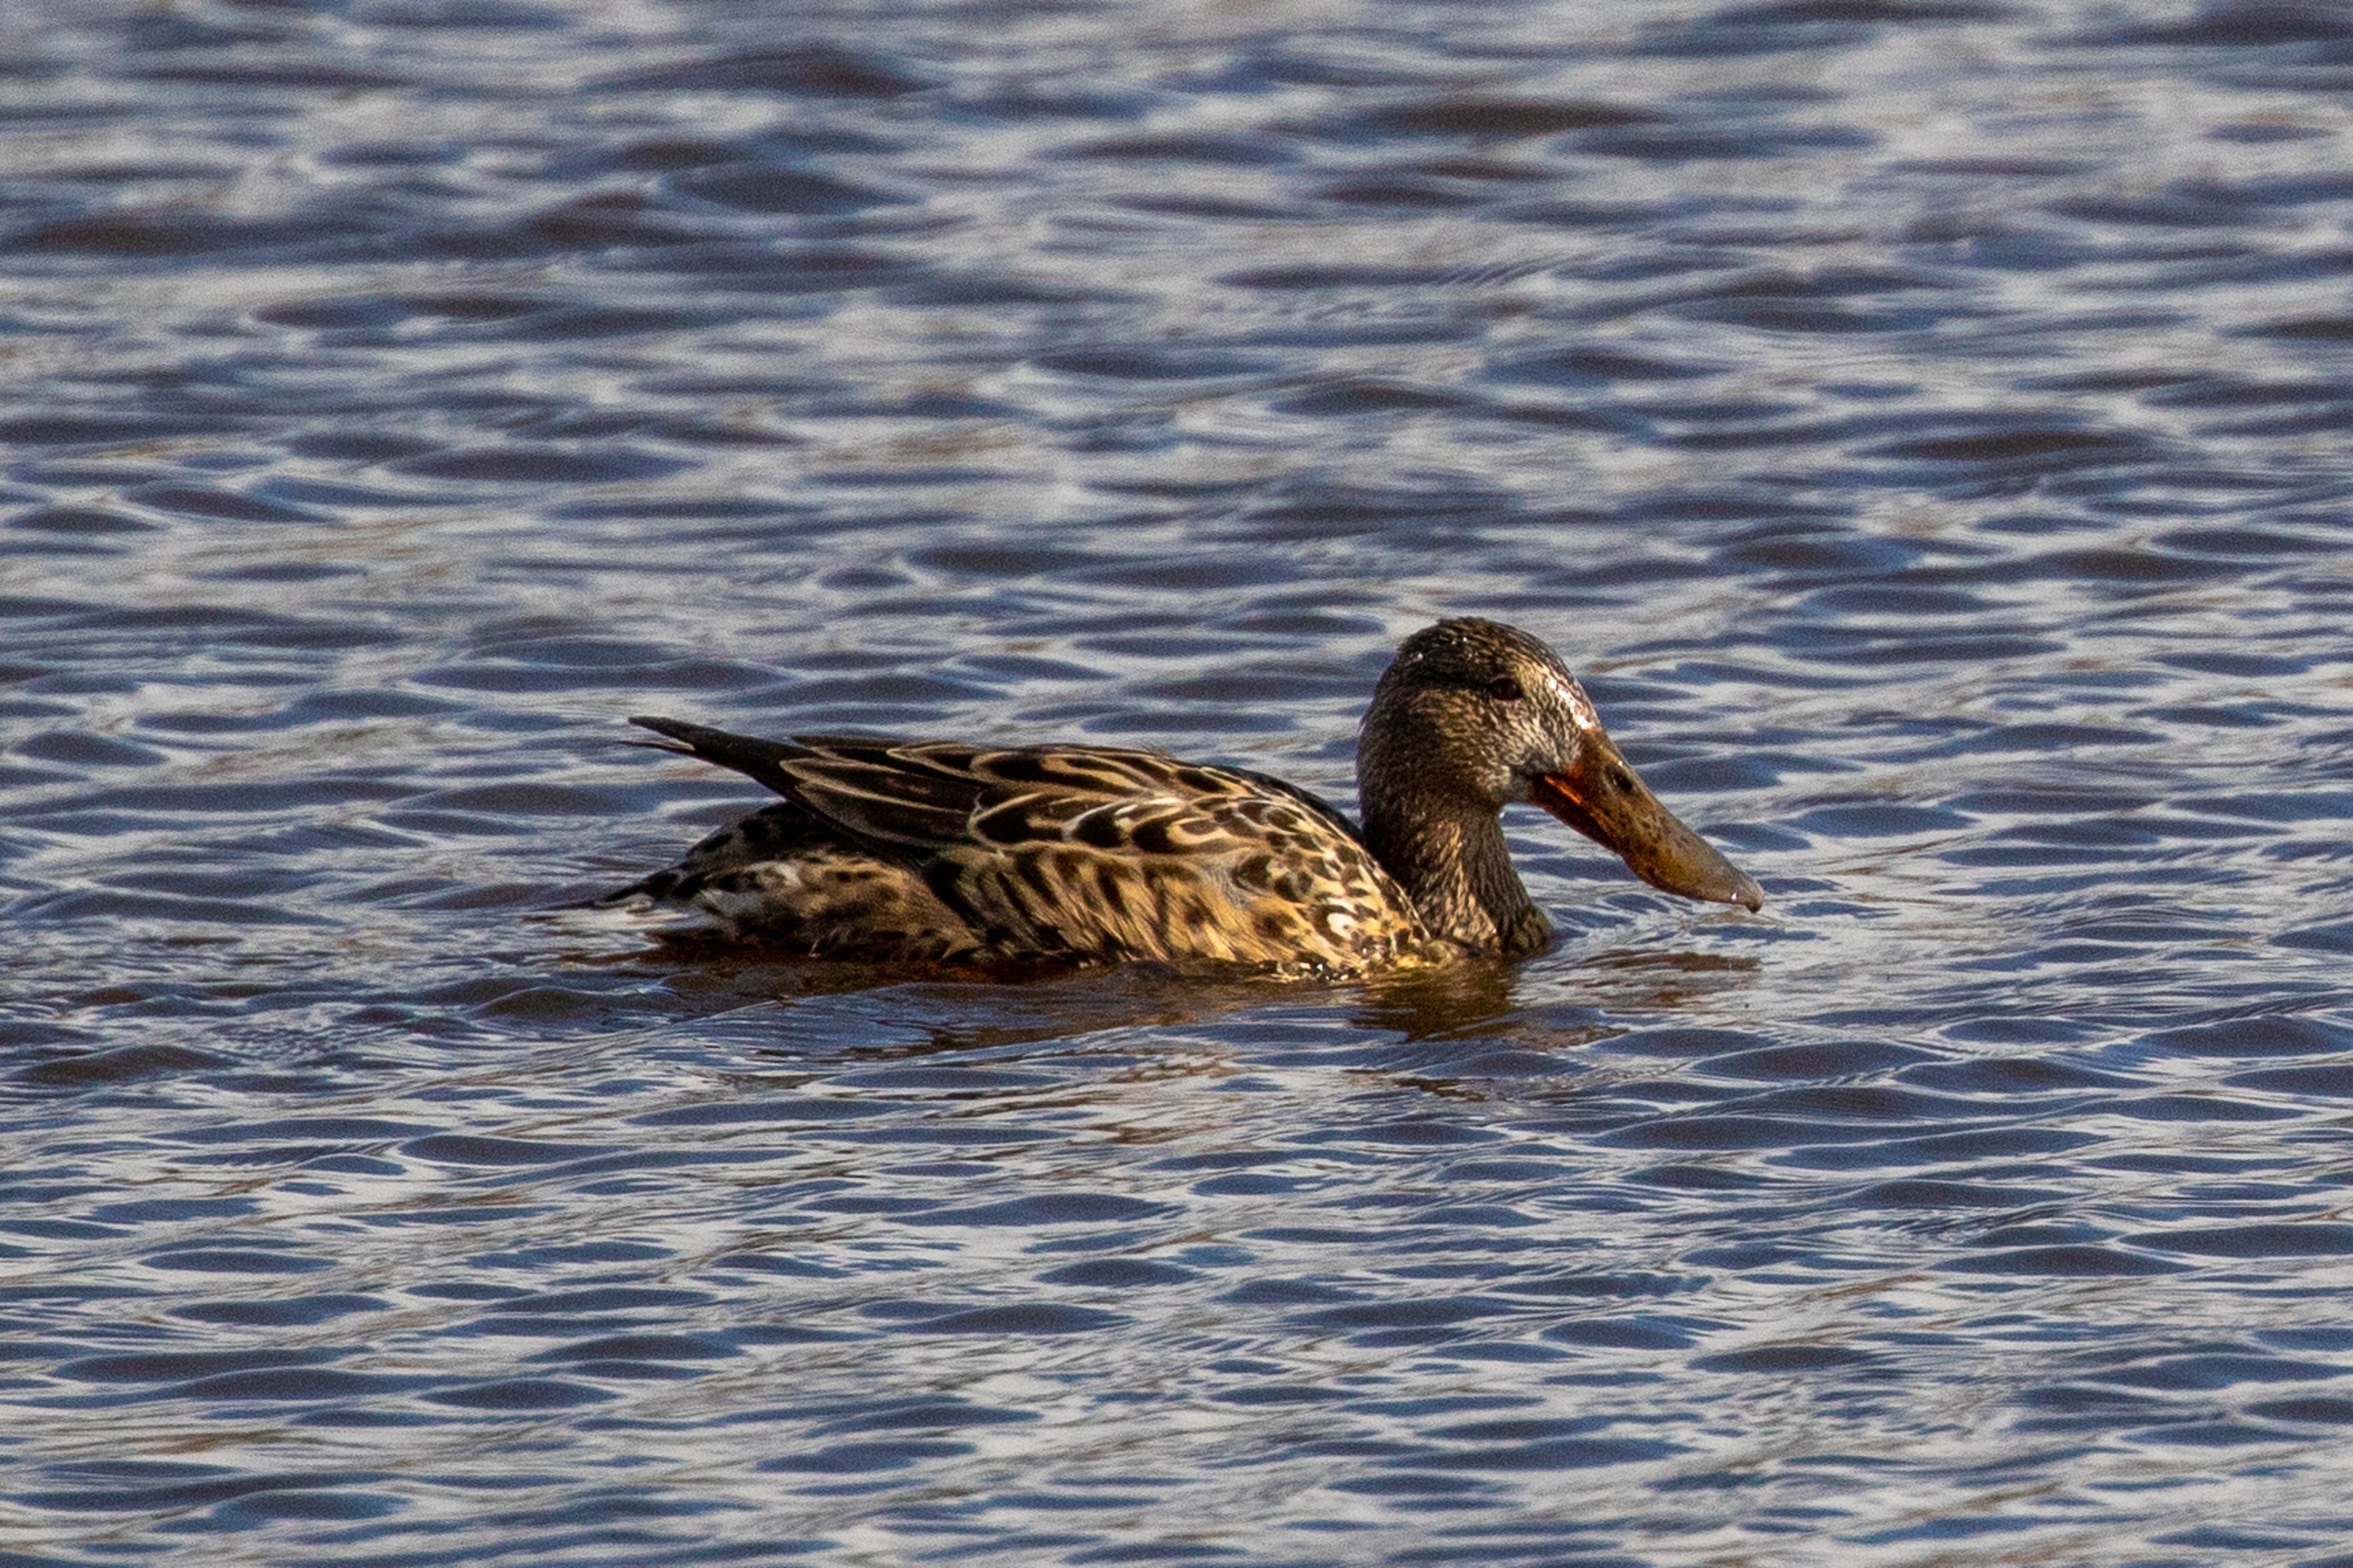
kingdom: Animalia
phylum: Chordata
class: Aves
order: Anseriformes
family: Anatidae
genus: Spatula
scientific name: Spatula clypeata
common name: Skeand
